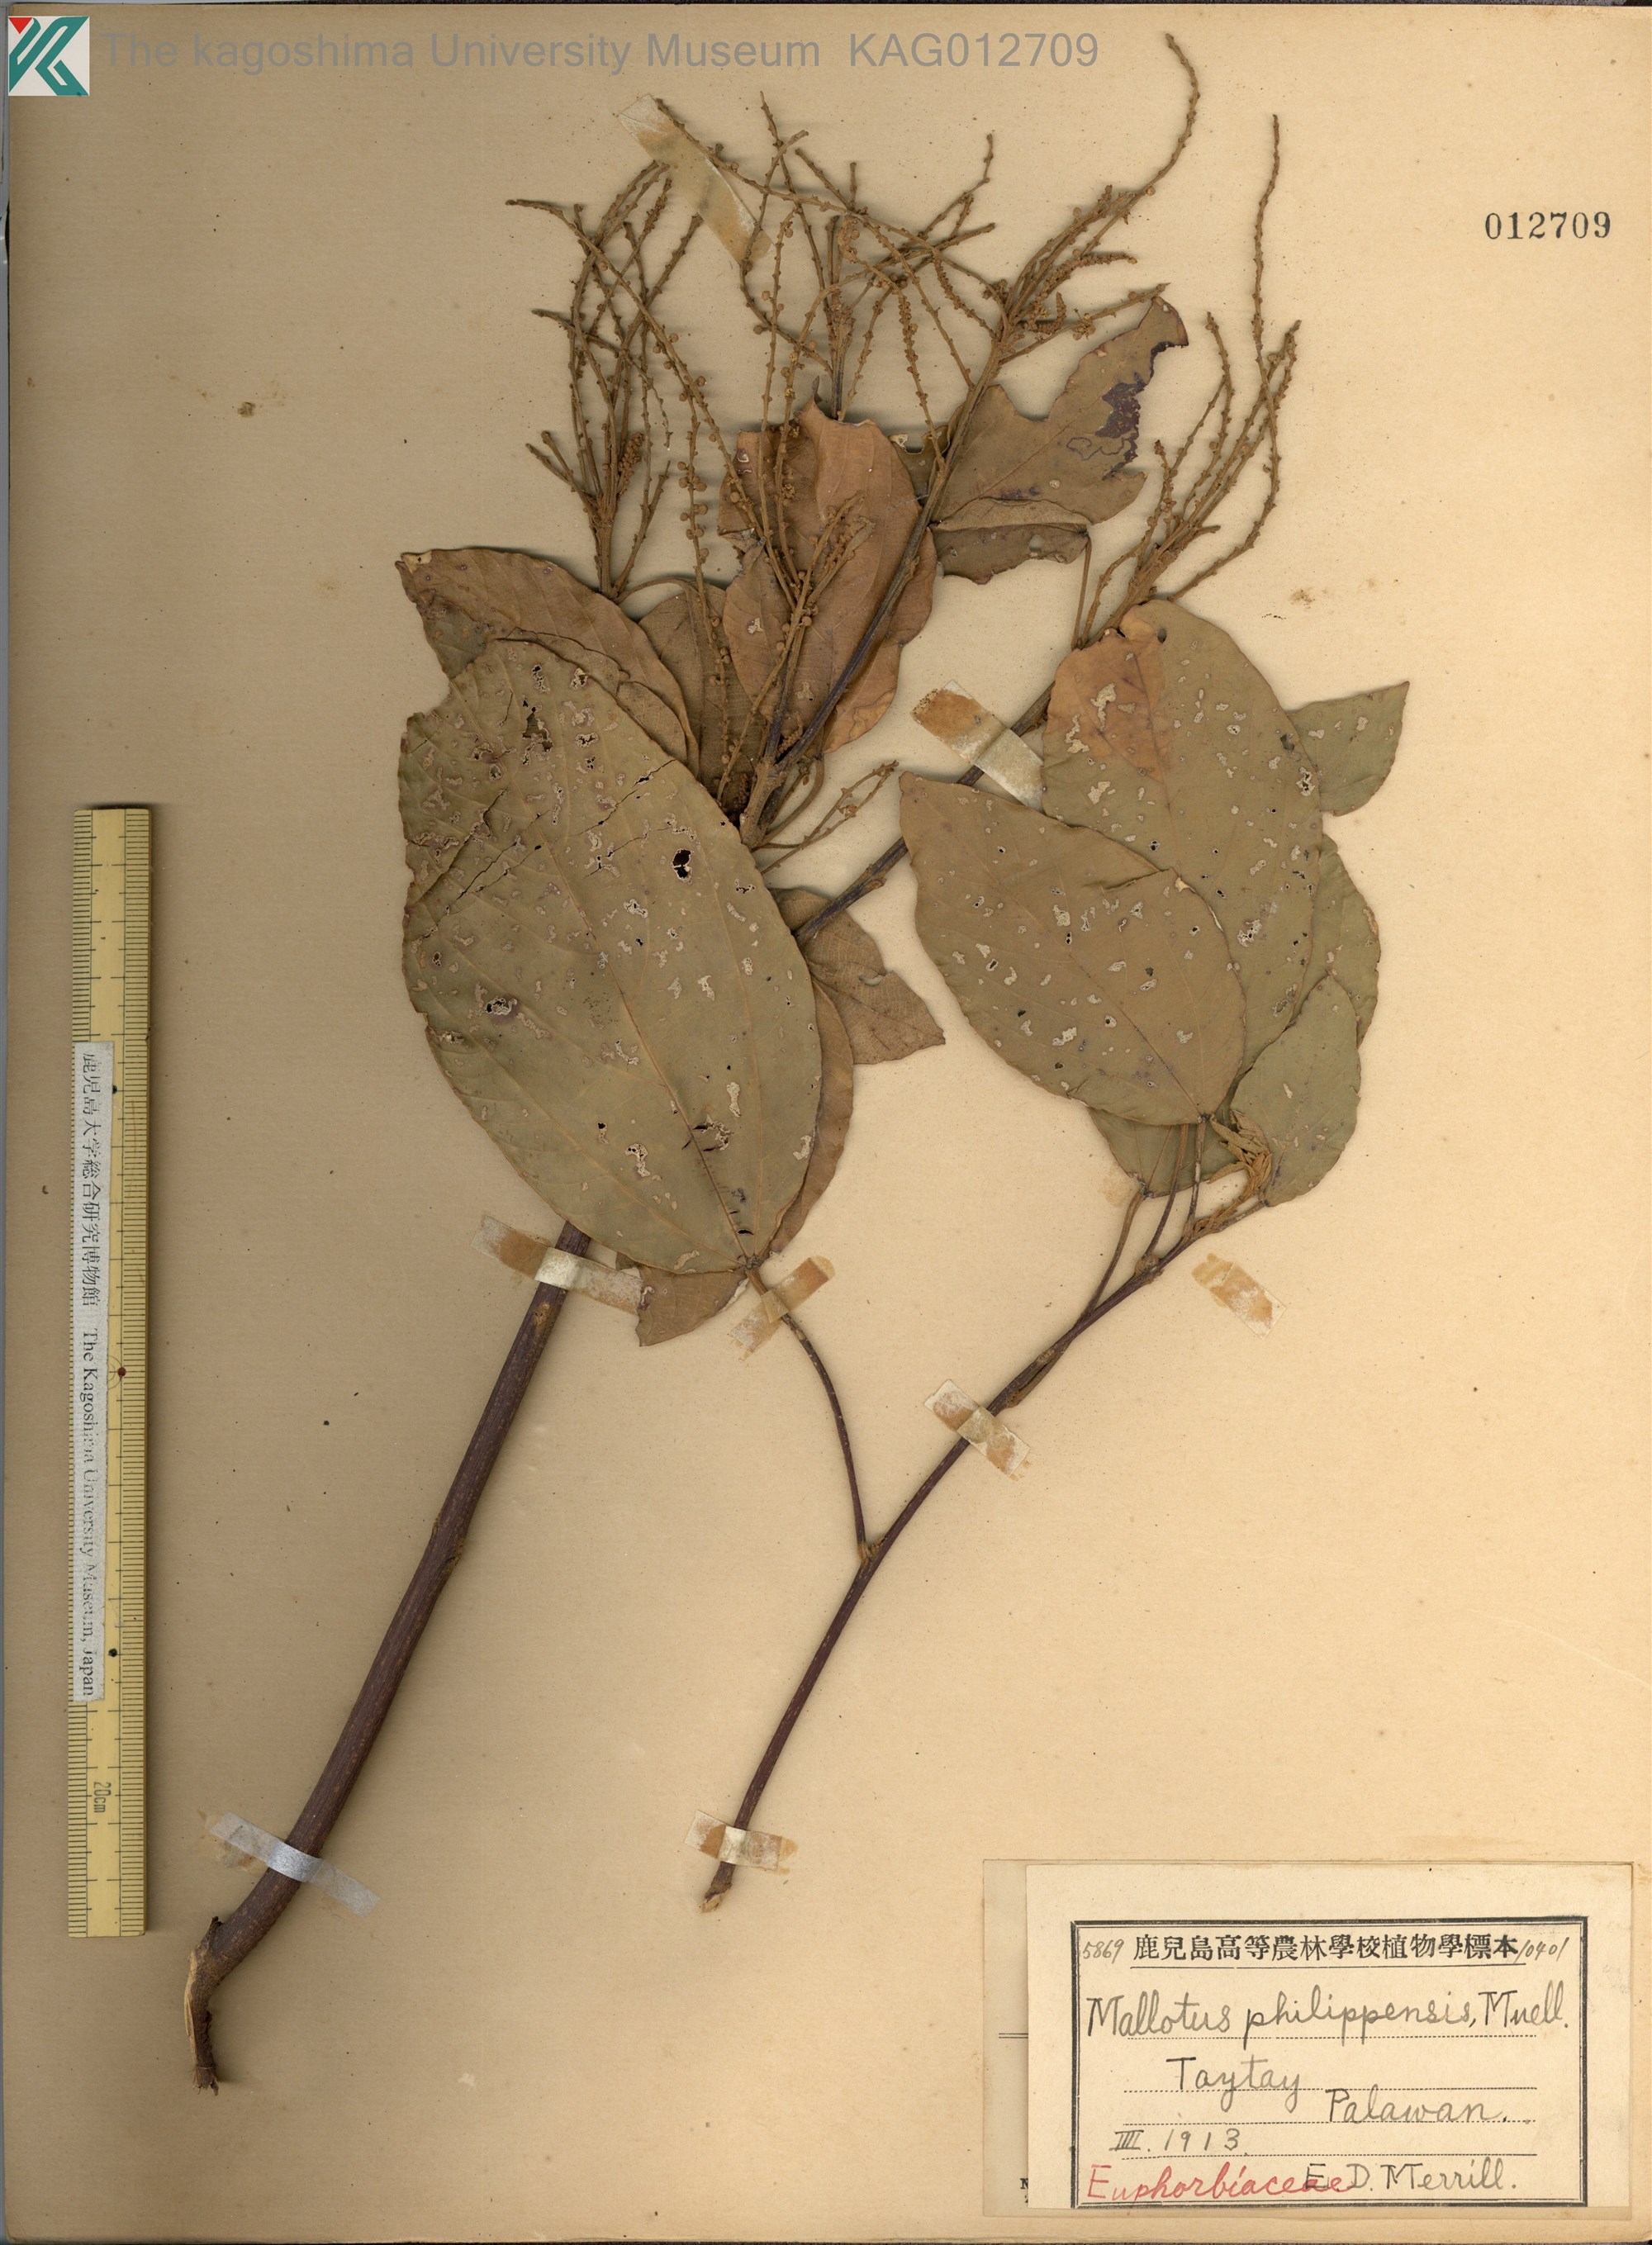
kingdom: Plantae
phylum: Tracheophyta
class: Magnoliopsida
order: Malpighiales
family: Euphorbiaceae
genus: Mallotus
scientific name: Mallotus philippensis
